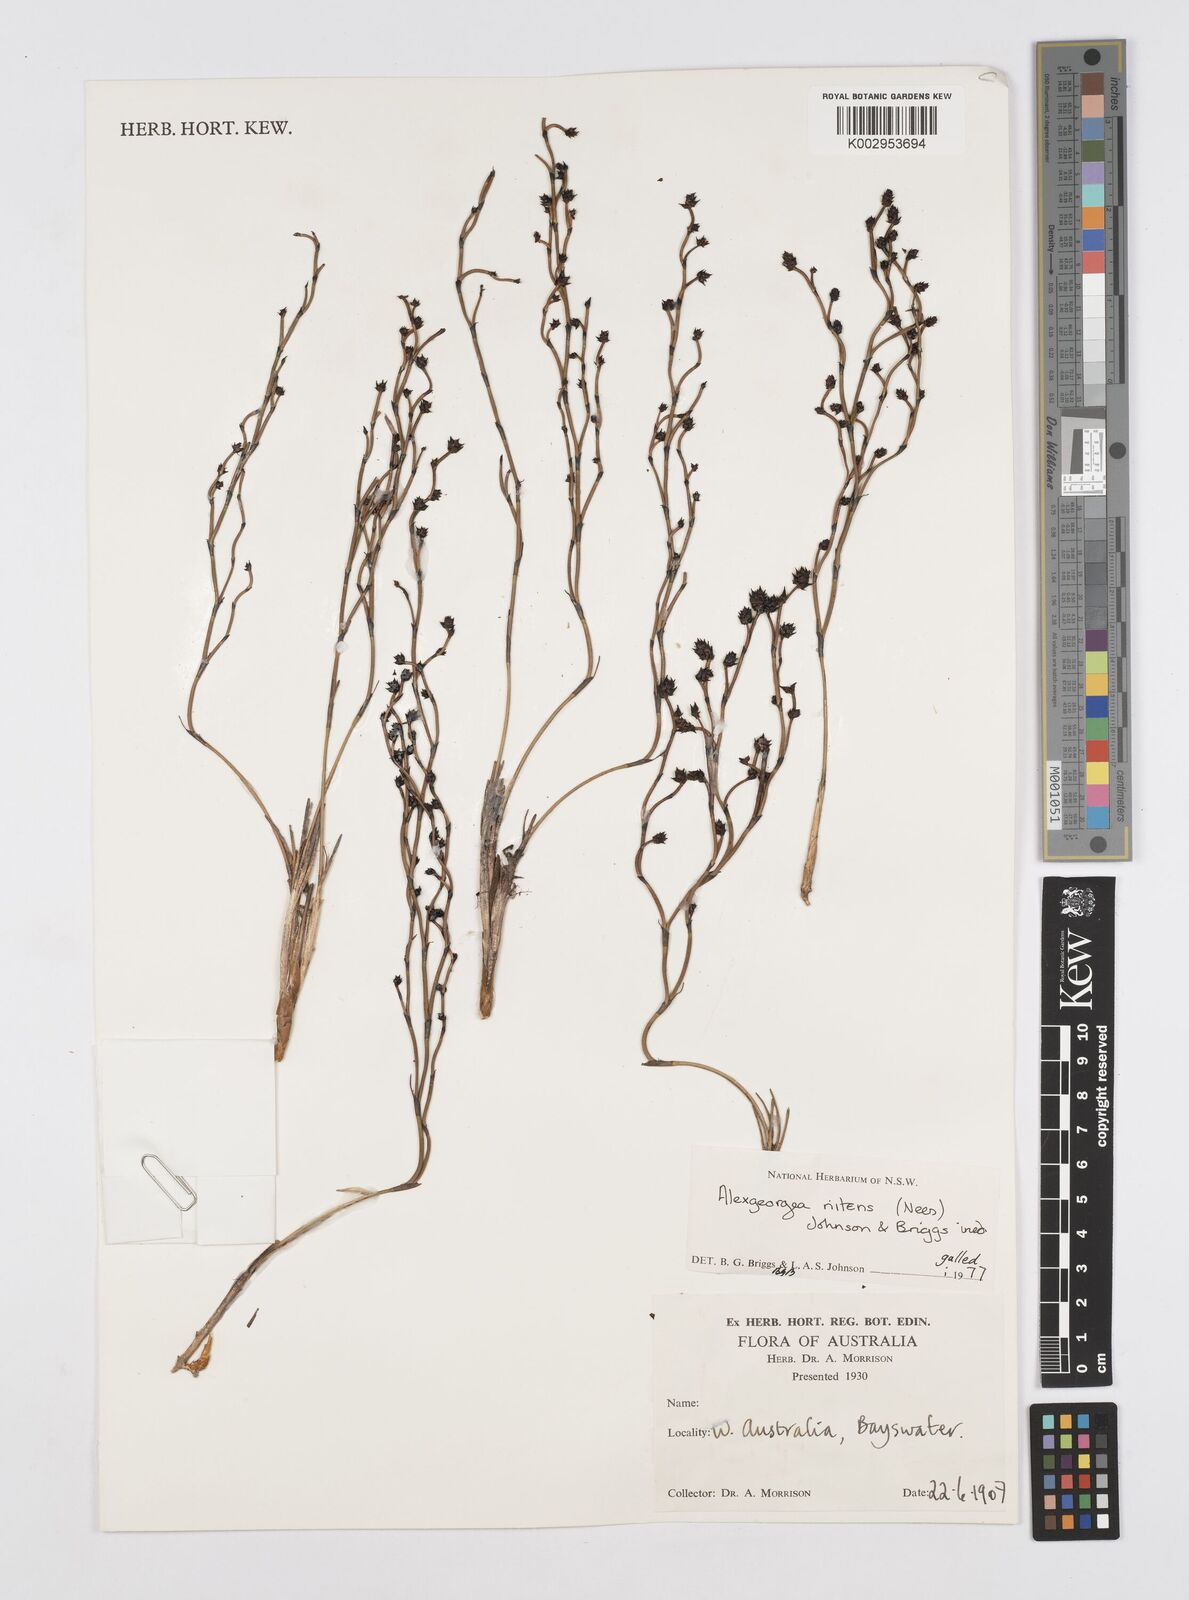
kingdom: Plantae
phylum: Tracheophyta
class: Liliopsida
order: Poales
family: Restionaceae
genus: Alexgeorgea
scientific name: Alexgeorgea nitens
